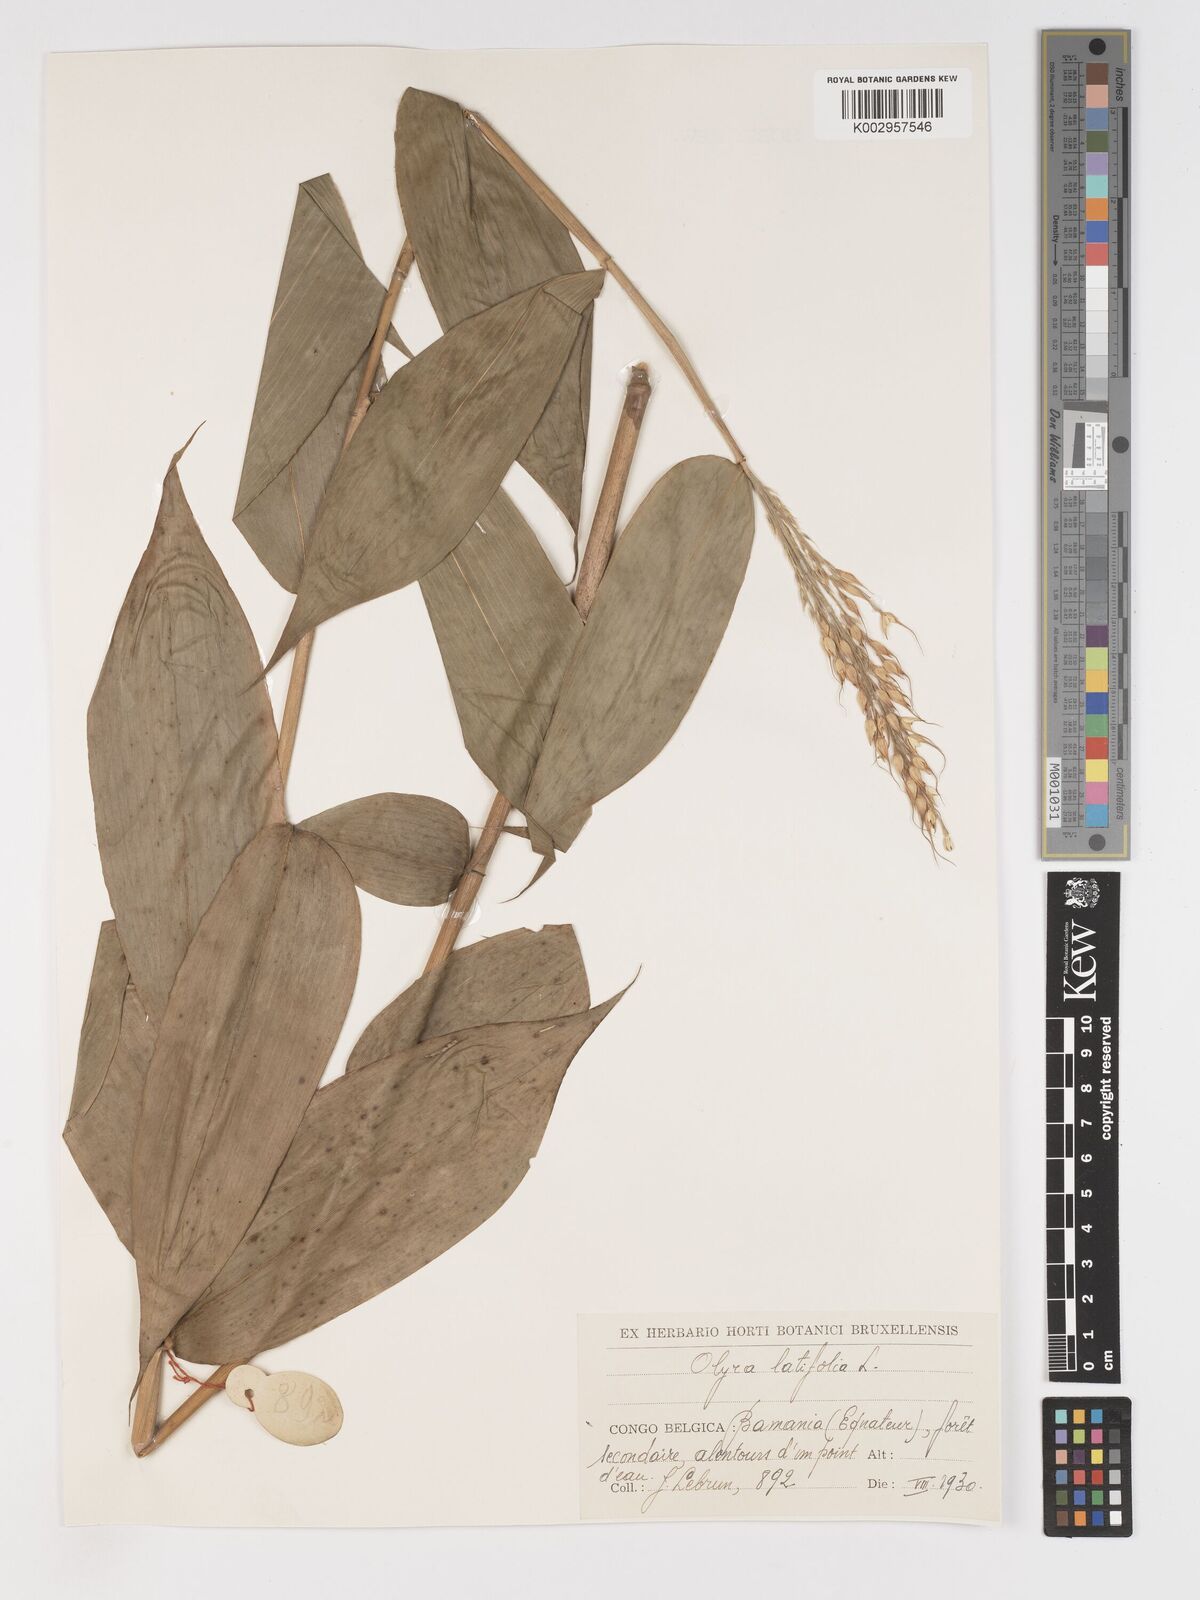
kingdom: Plantae
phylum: Tracheophyta
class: Liliopsida
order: Poales
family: Poaceae
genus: Olyra
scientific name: Olyra latifolia
